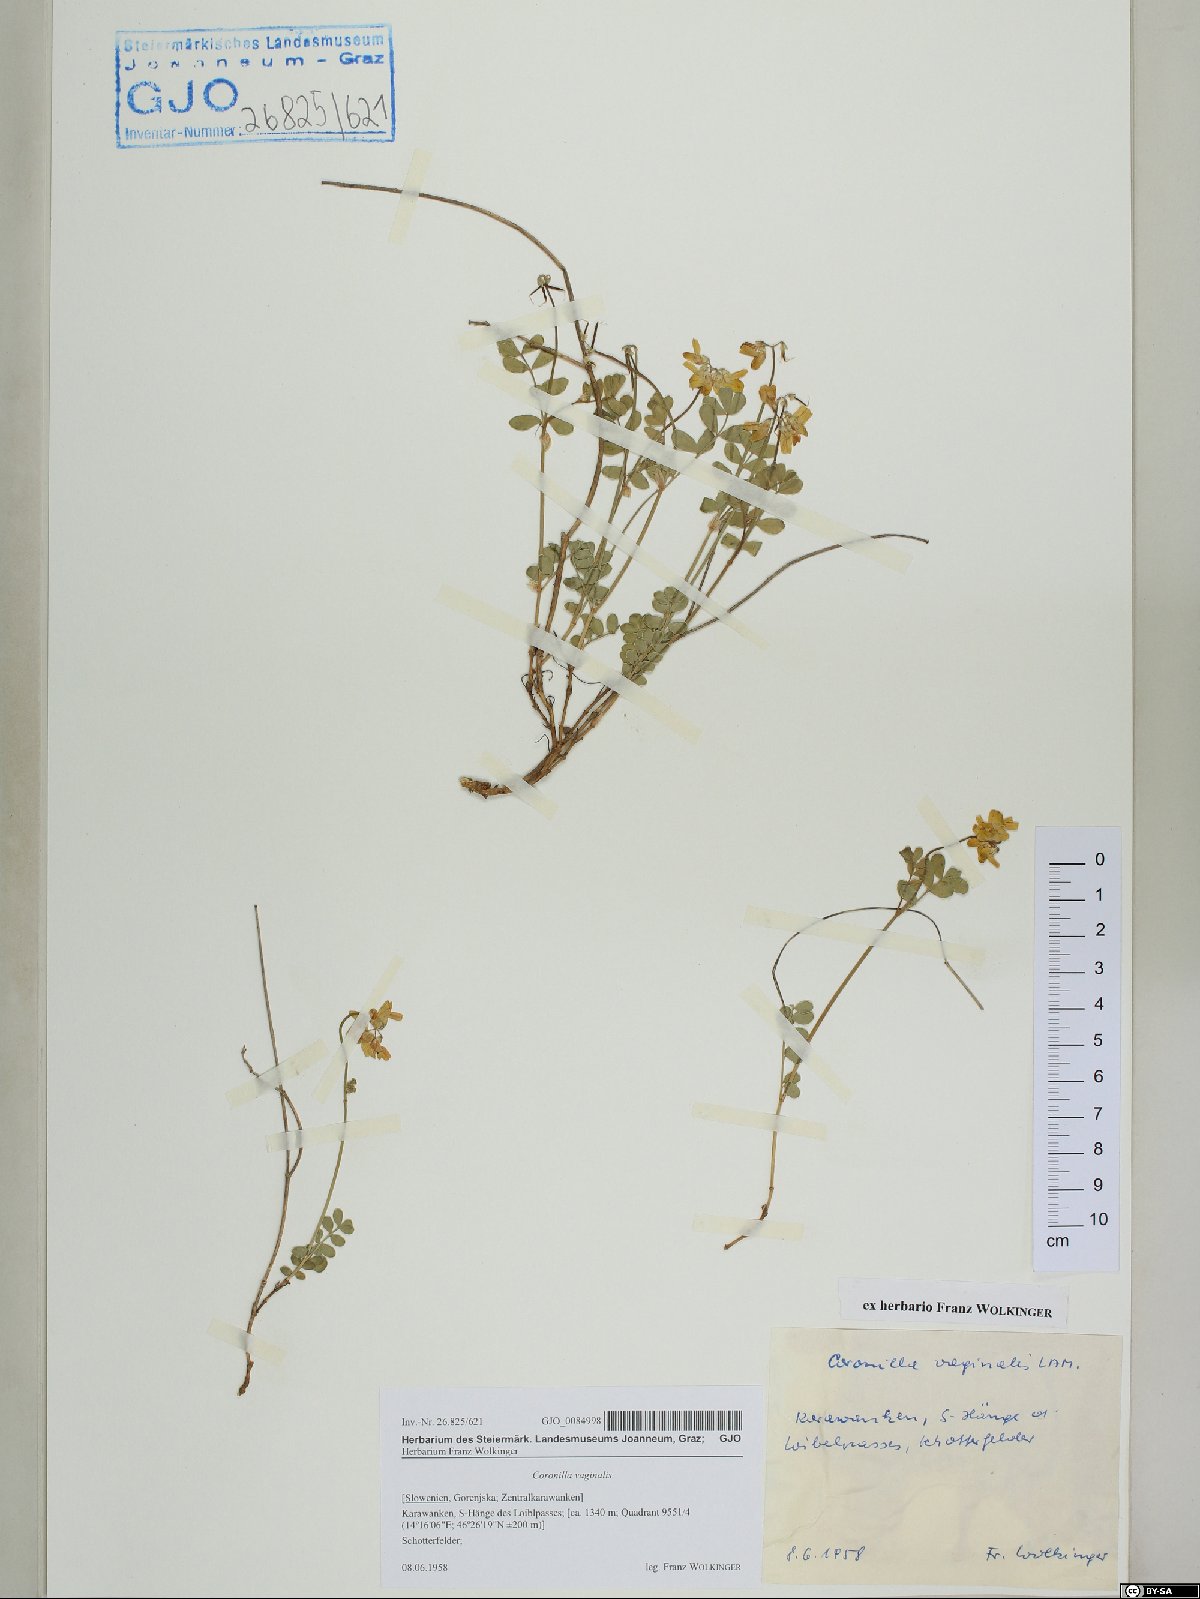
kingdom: Plantae
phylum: Tracheophyta
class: Magnoliopsida
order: Fabales
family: Fabaceae
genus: Coronilla
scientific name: Coronilla vaginalis
